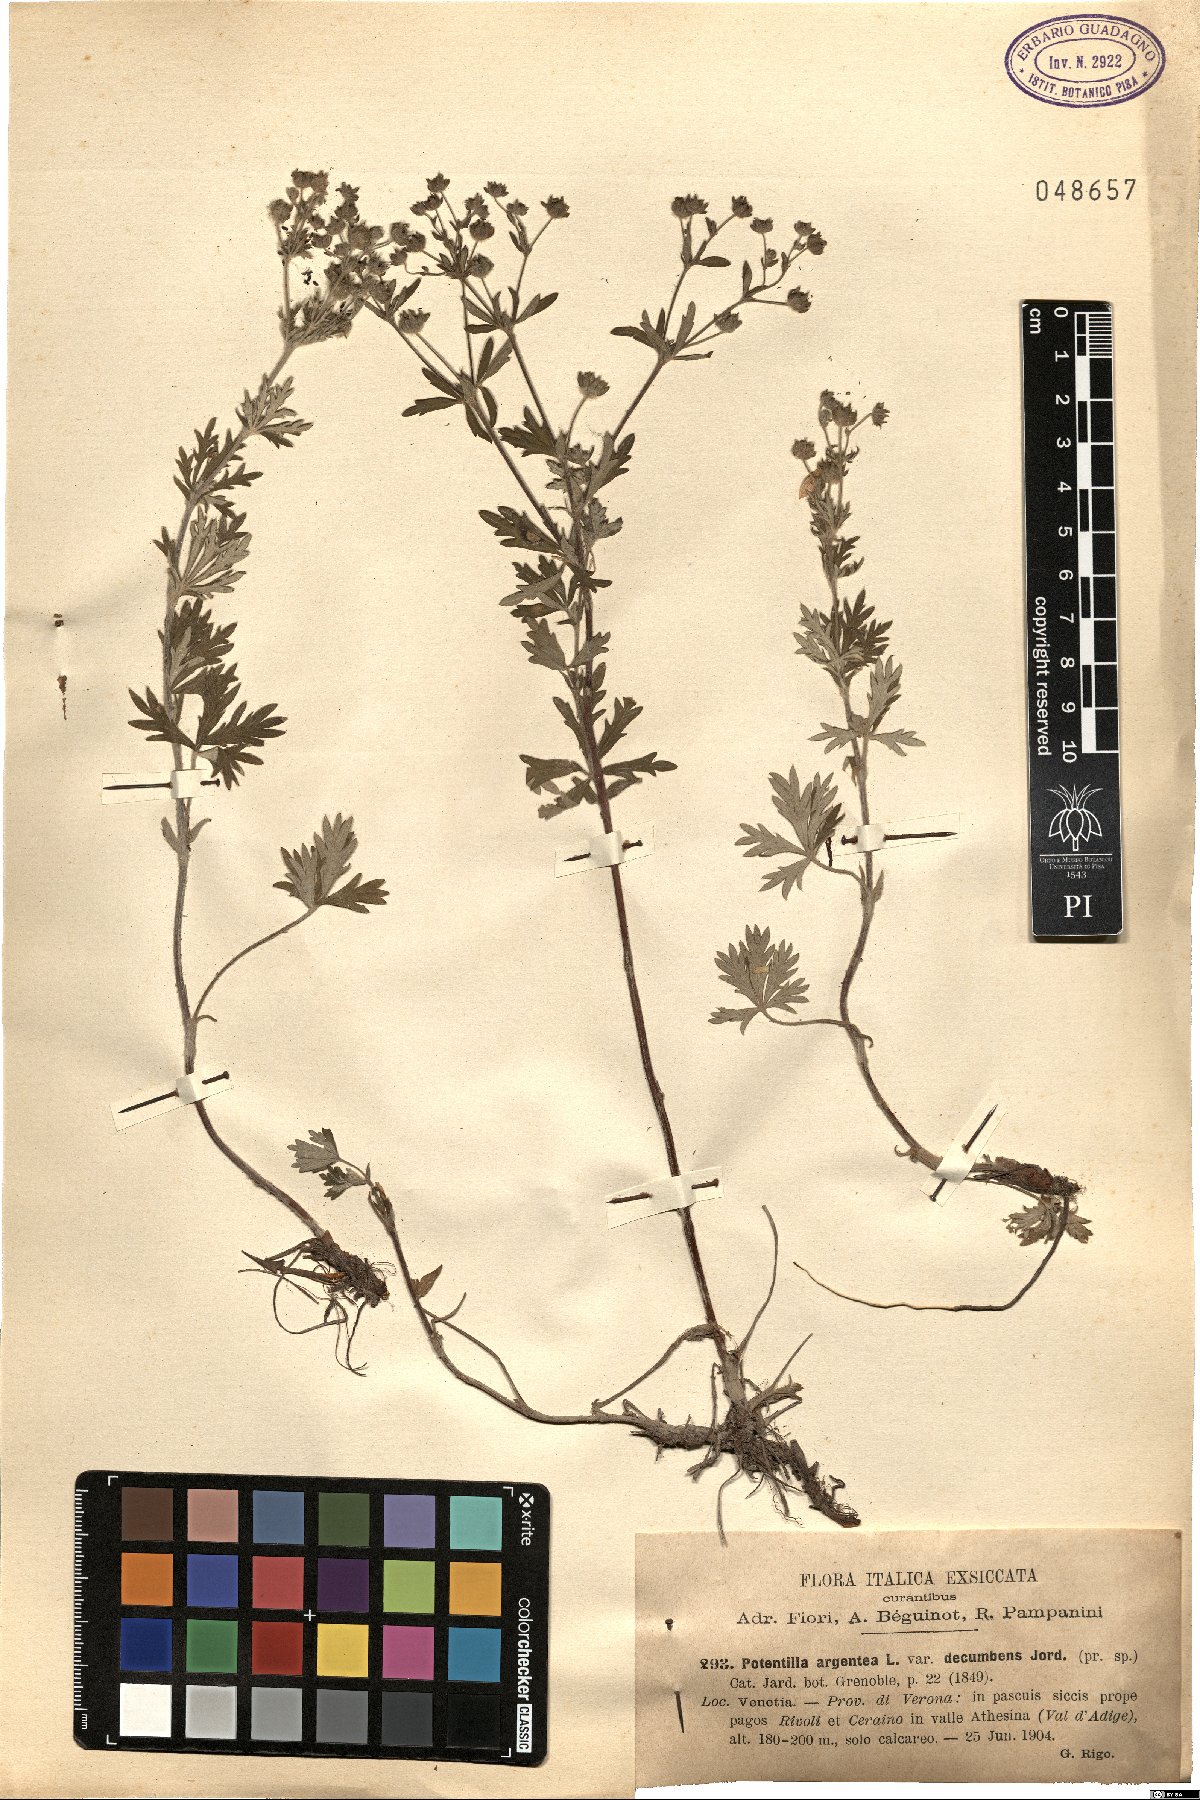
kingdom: Plantae
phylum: Tracheophyta
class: Magnoliopsida
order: Rosales
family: Rosaceae
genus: Potentilla
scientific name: Potentilla argentea
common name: Hoary cinquefoil
